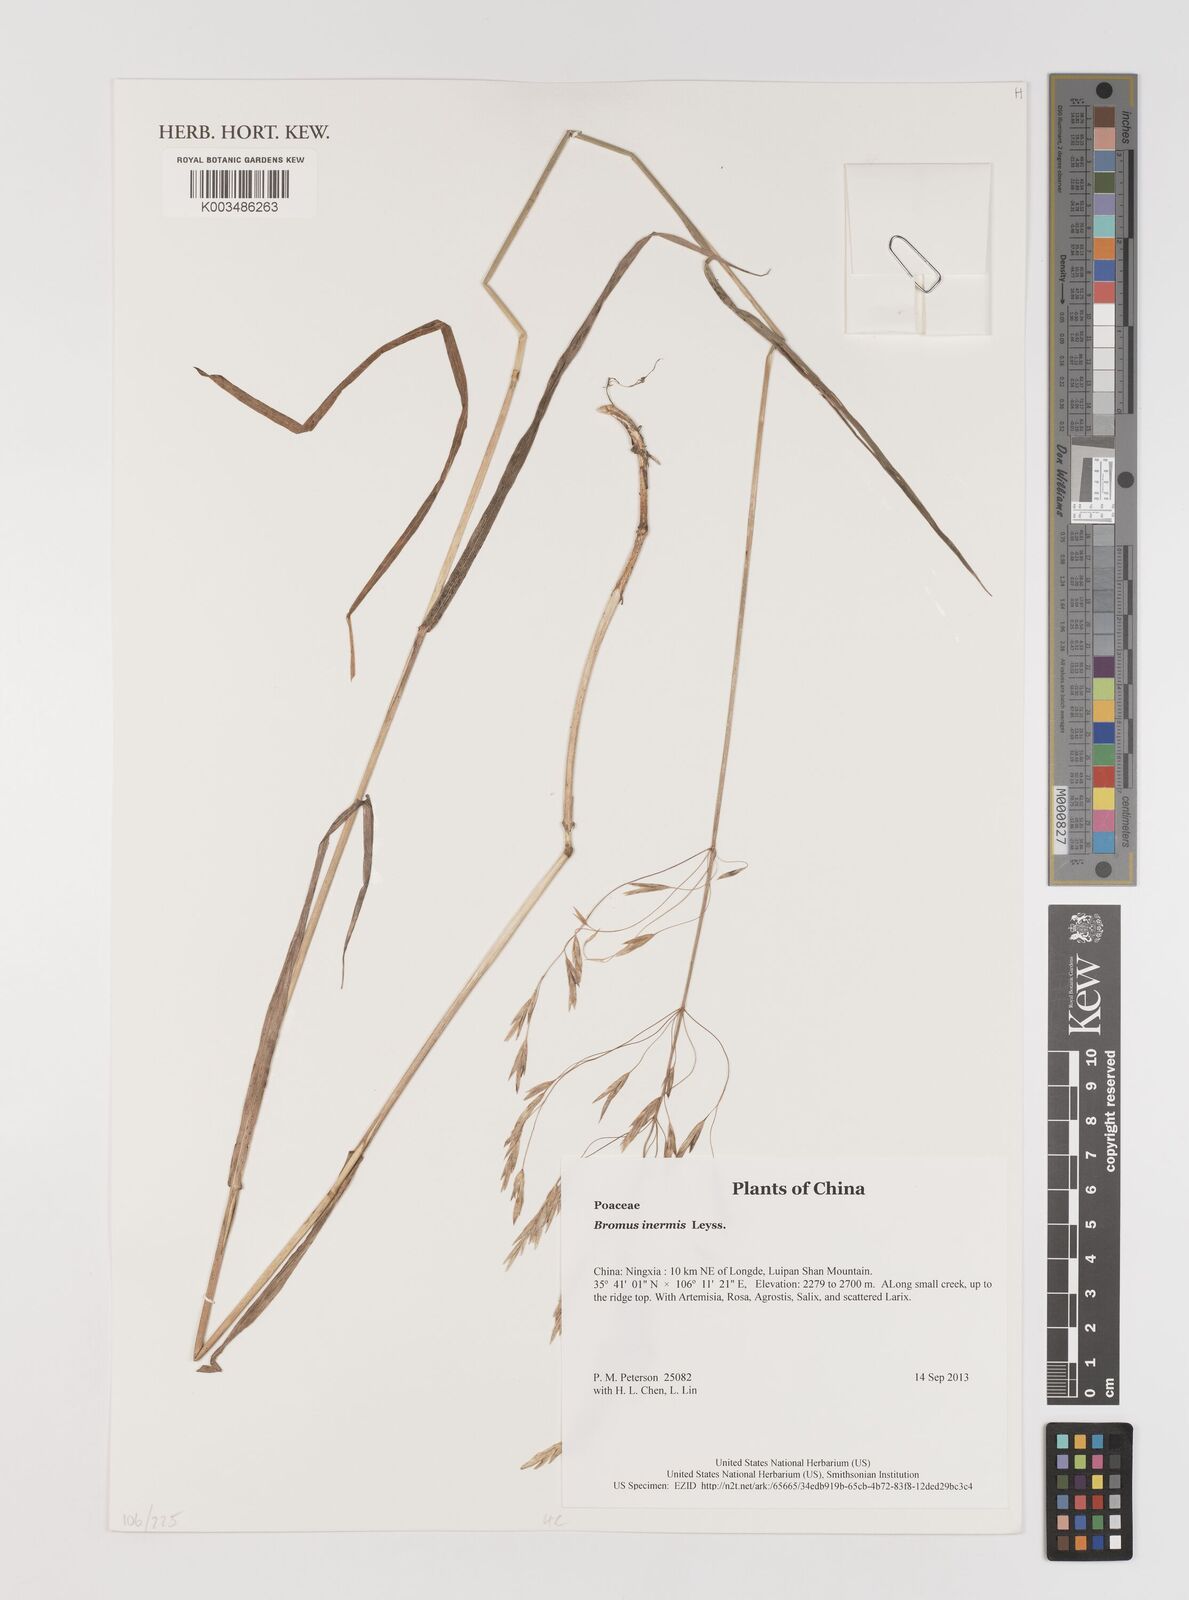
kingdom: Plantae
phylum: Tracheophyta
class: Liliopsida
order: Poales
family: Poaceae
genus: Bromus
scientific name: Bromus inermis
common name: Smooth brome
